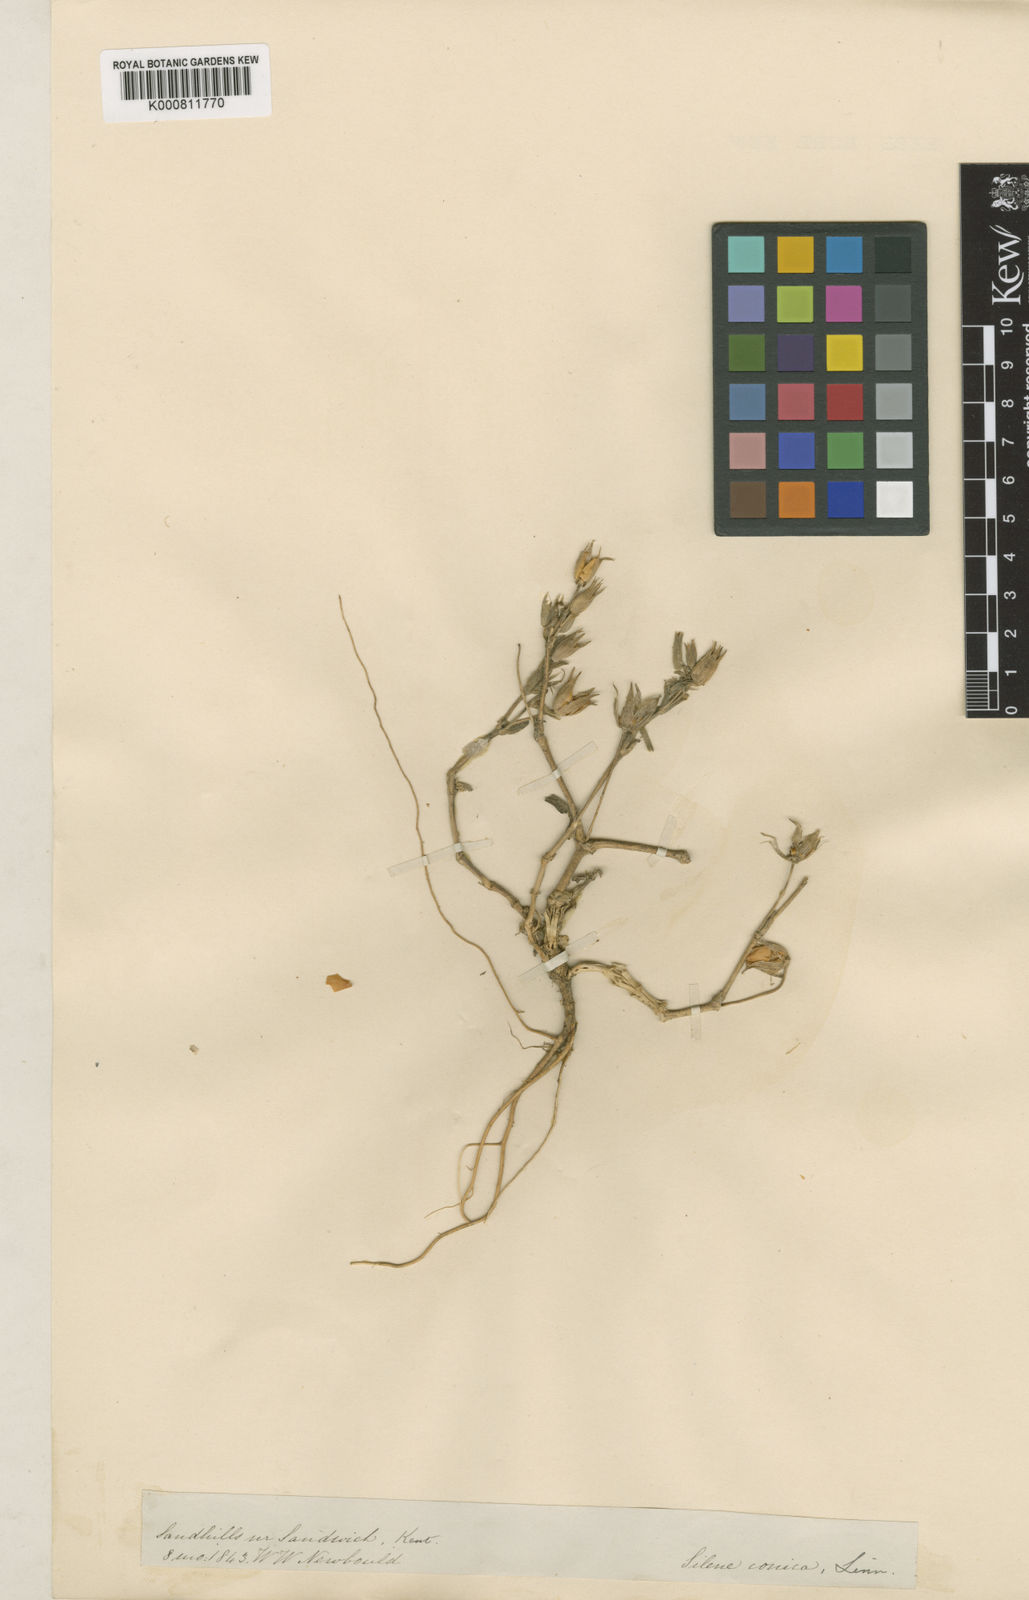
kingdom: Plantae
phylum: Tracheophyta
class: Magnoliopsida
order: Caryophyllales
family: Caryophyllaceae
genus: Silene
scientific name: Silene conica
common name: Sand catchfly
